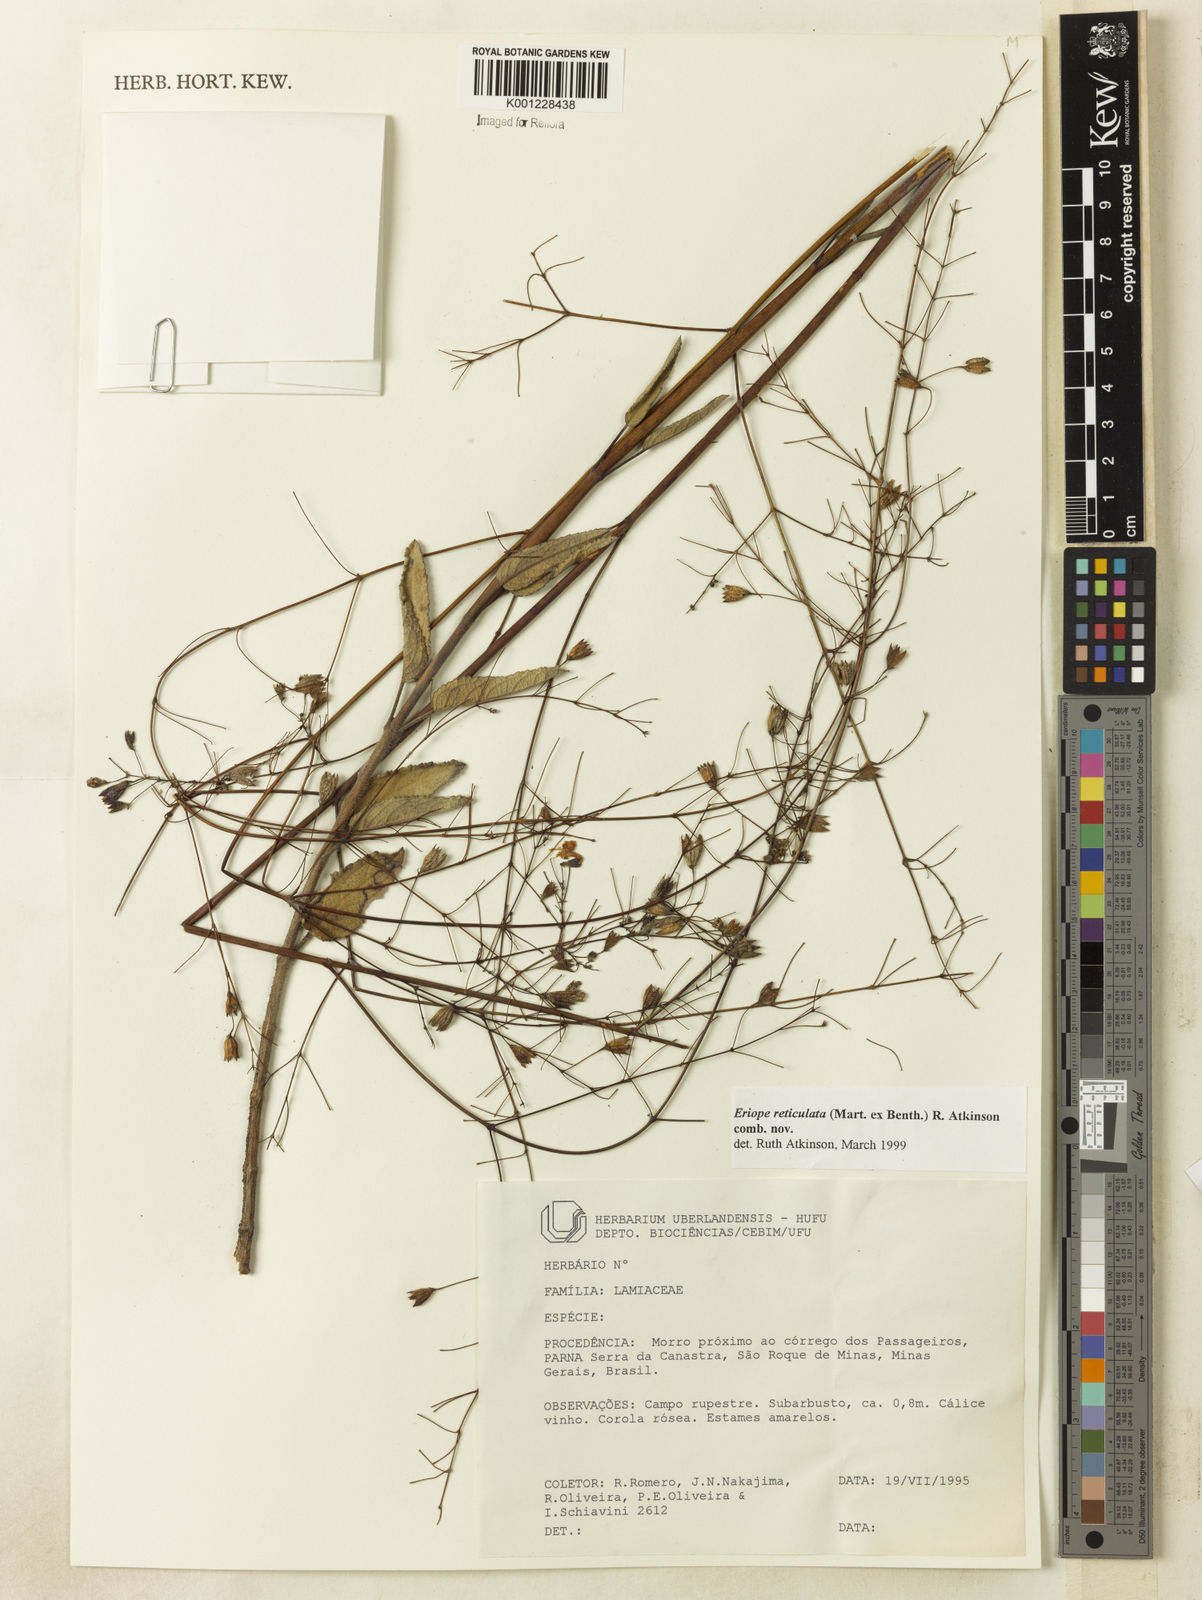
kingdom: Plantae
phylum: Tracheophyta
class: Magnoliopsida
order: Lamiales
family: Lamiaceae
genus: Hypenia
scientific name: Hypenia reticulata
